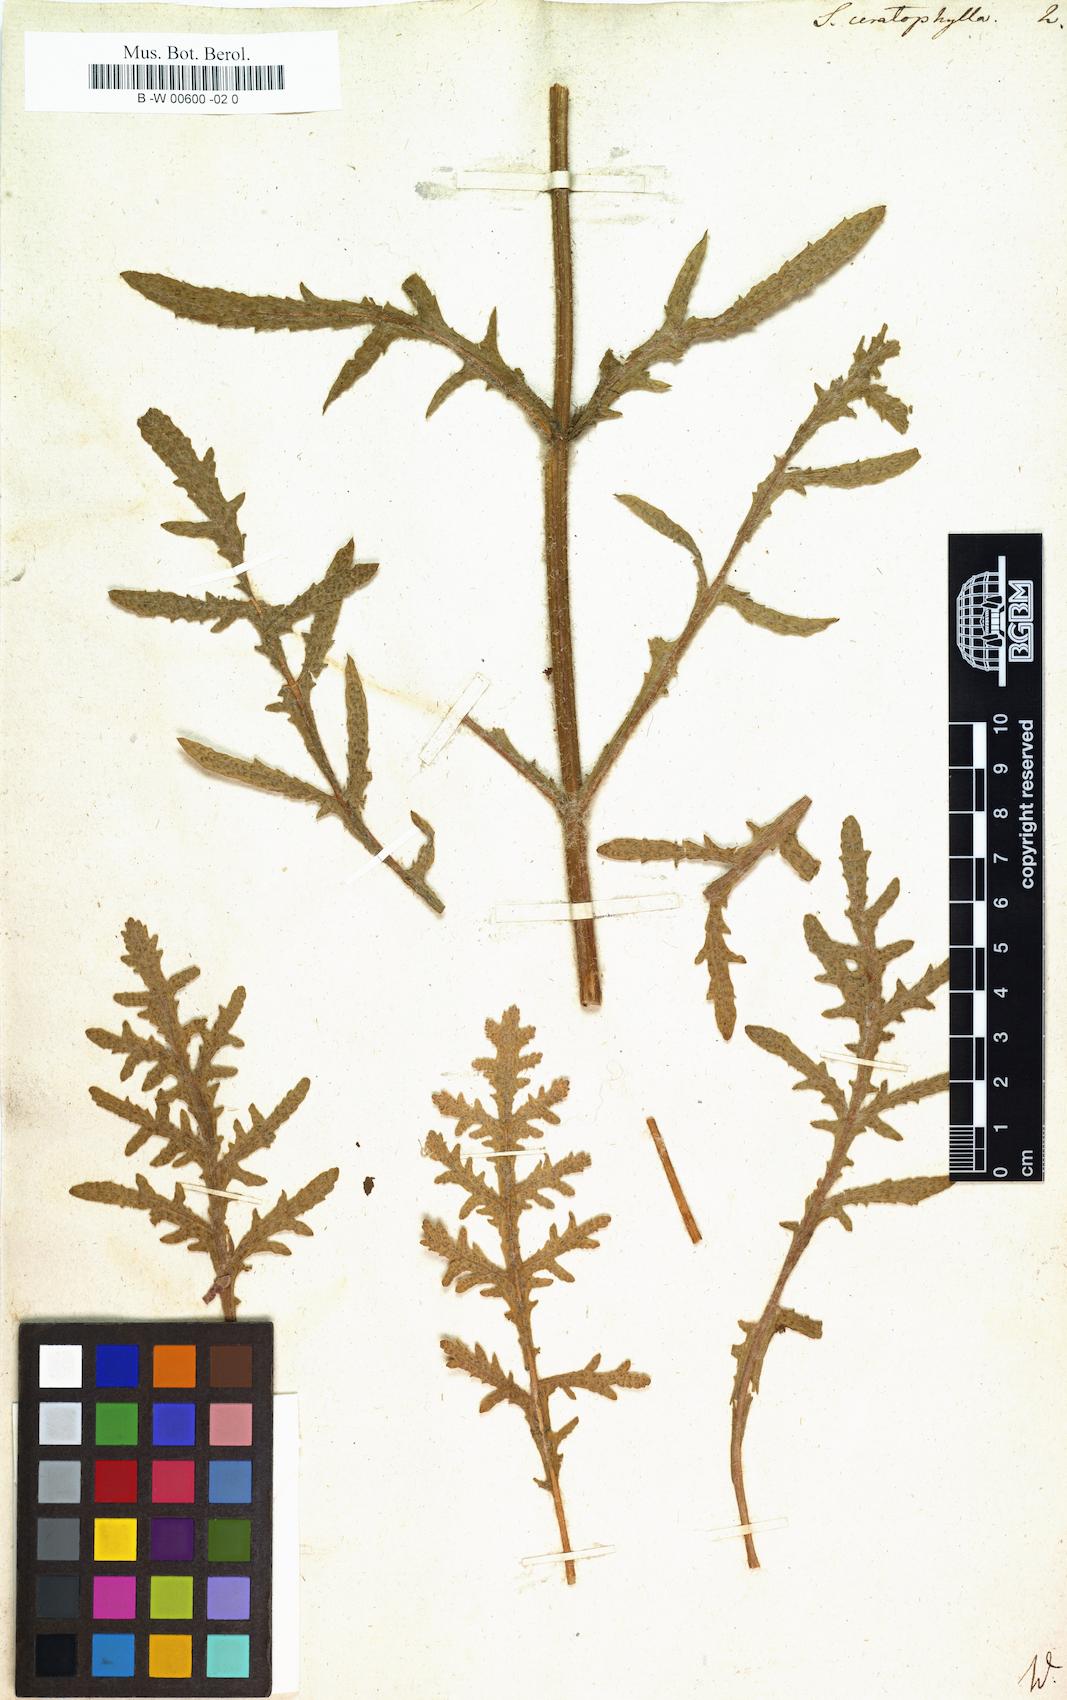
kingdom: Plantae
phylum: Tracheophyta
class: Magnoliopsida
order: Lamiales
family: Lamiaceae
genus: Salvia
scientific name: Salvia pratensis
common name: Meadow sage
